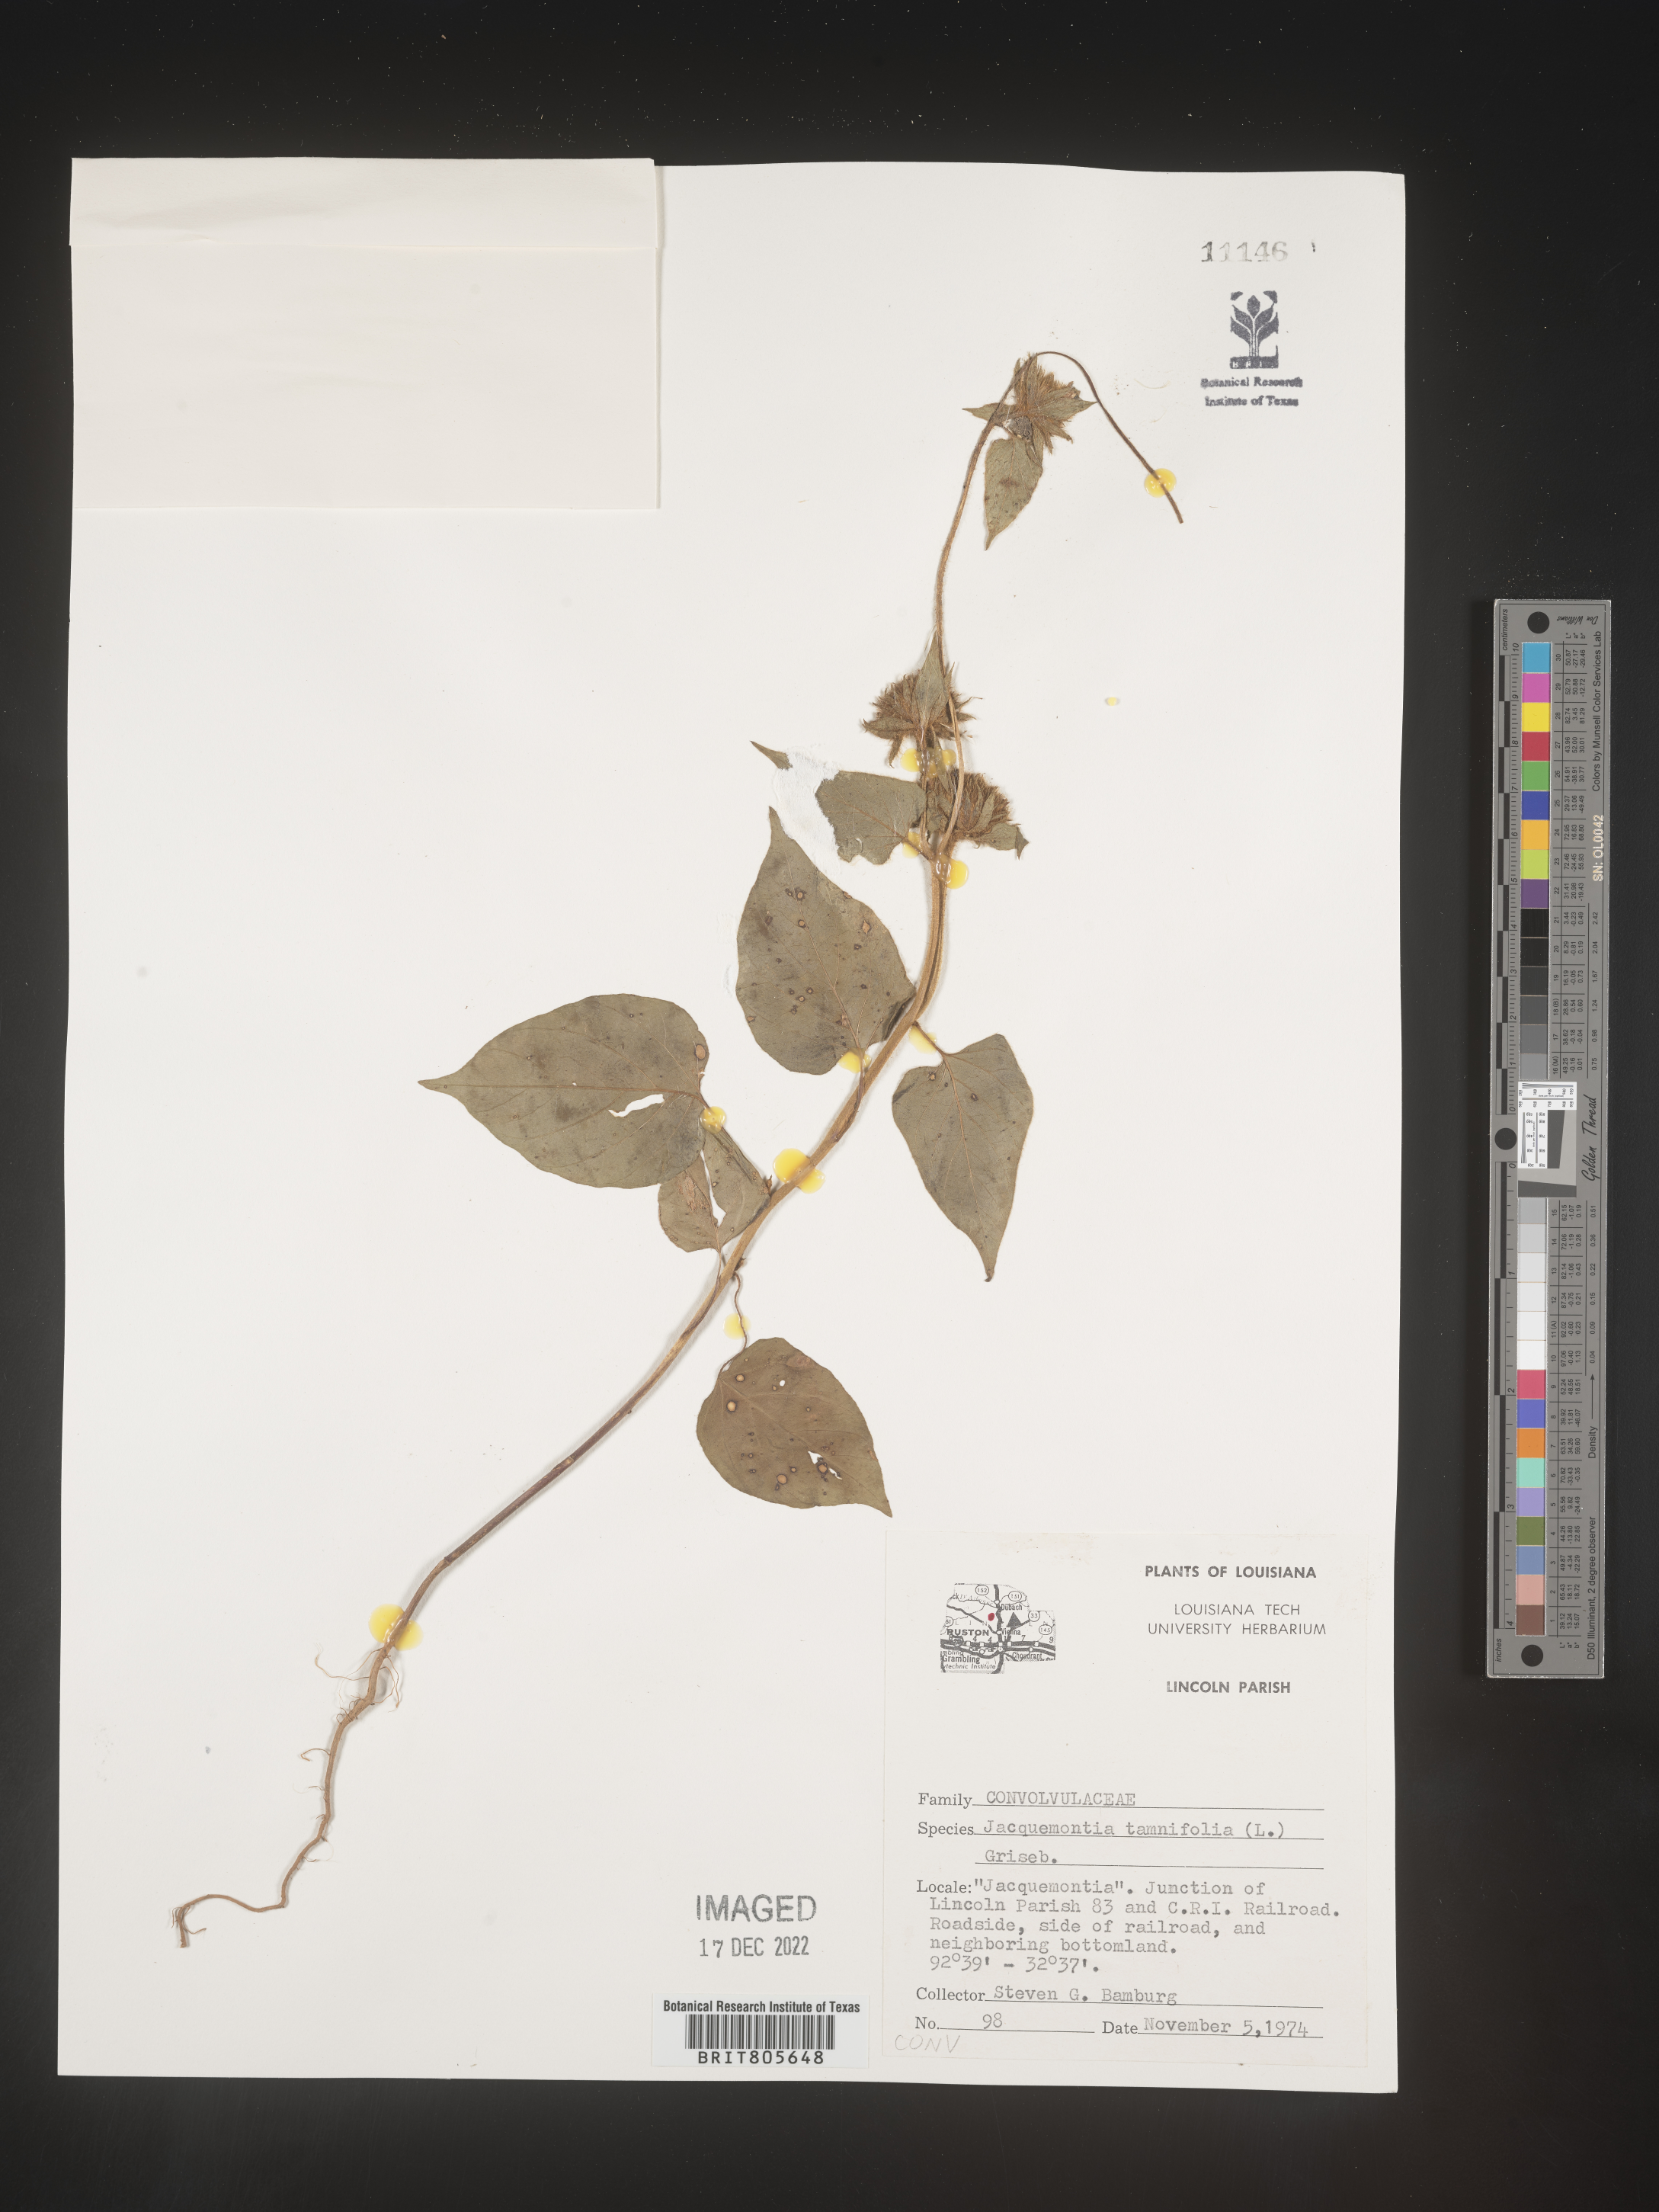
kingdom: Plantae
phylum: Tracheophyta
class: Magnoliopsida
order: Solanales
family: Convolvulaceae
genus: Jacquemontia
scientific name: Jacquemontia tamnifolia
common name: Hairy clustervine
